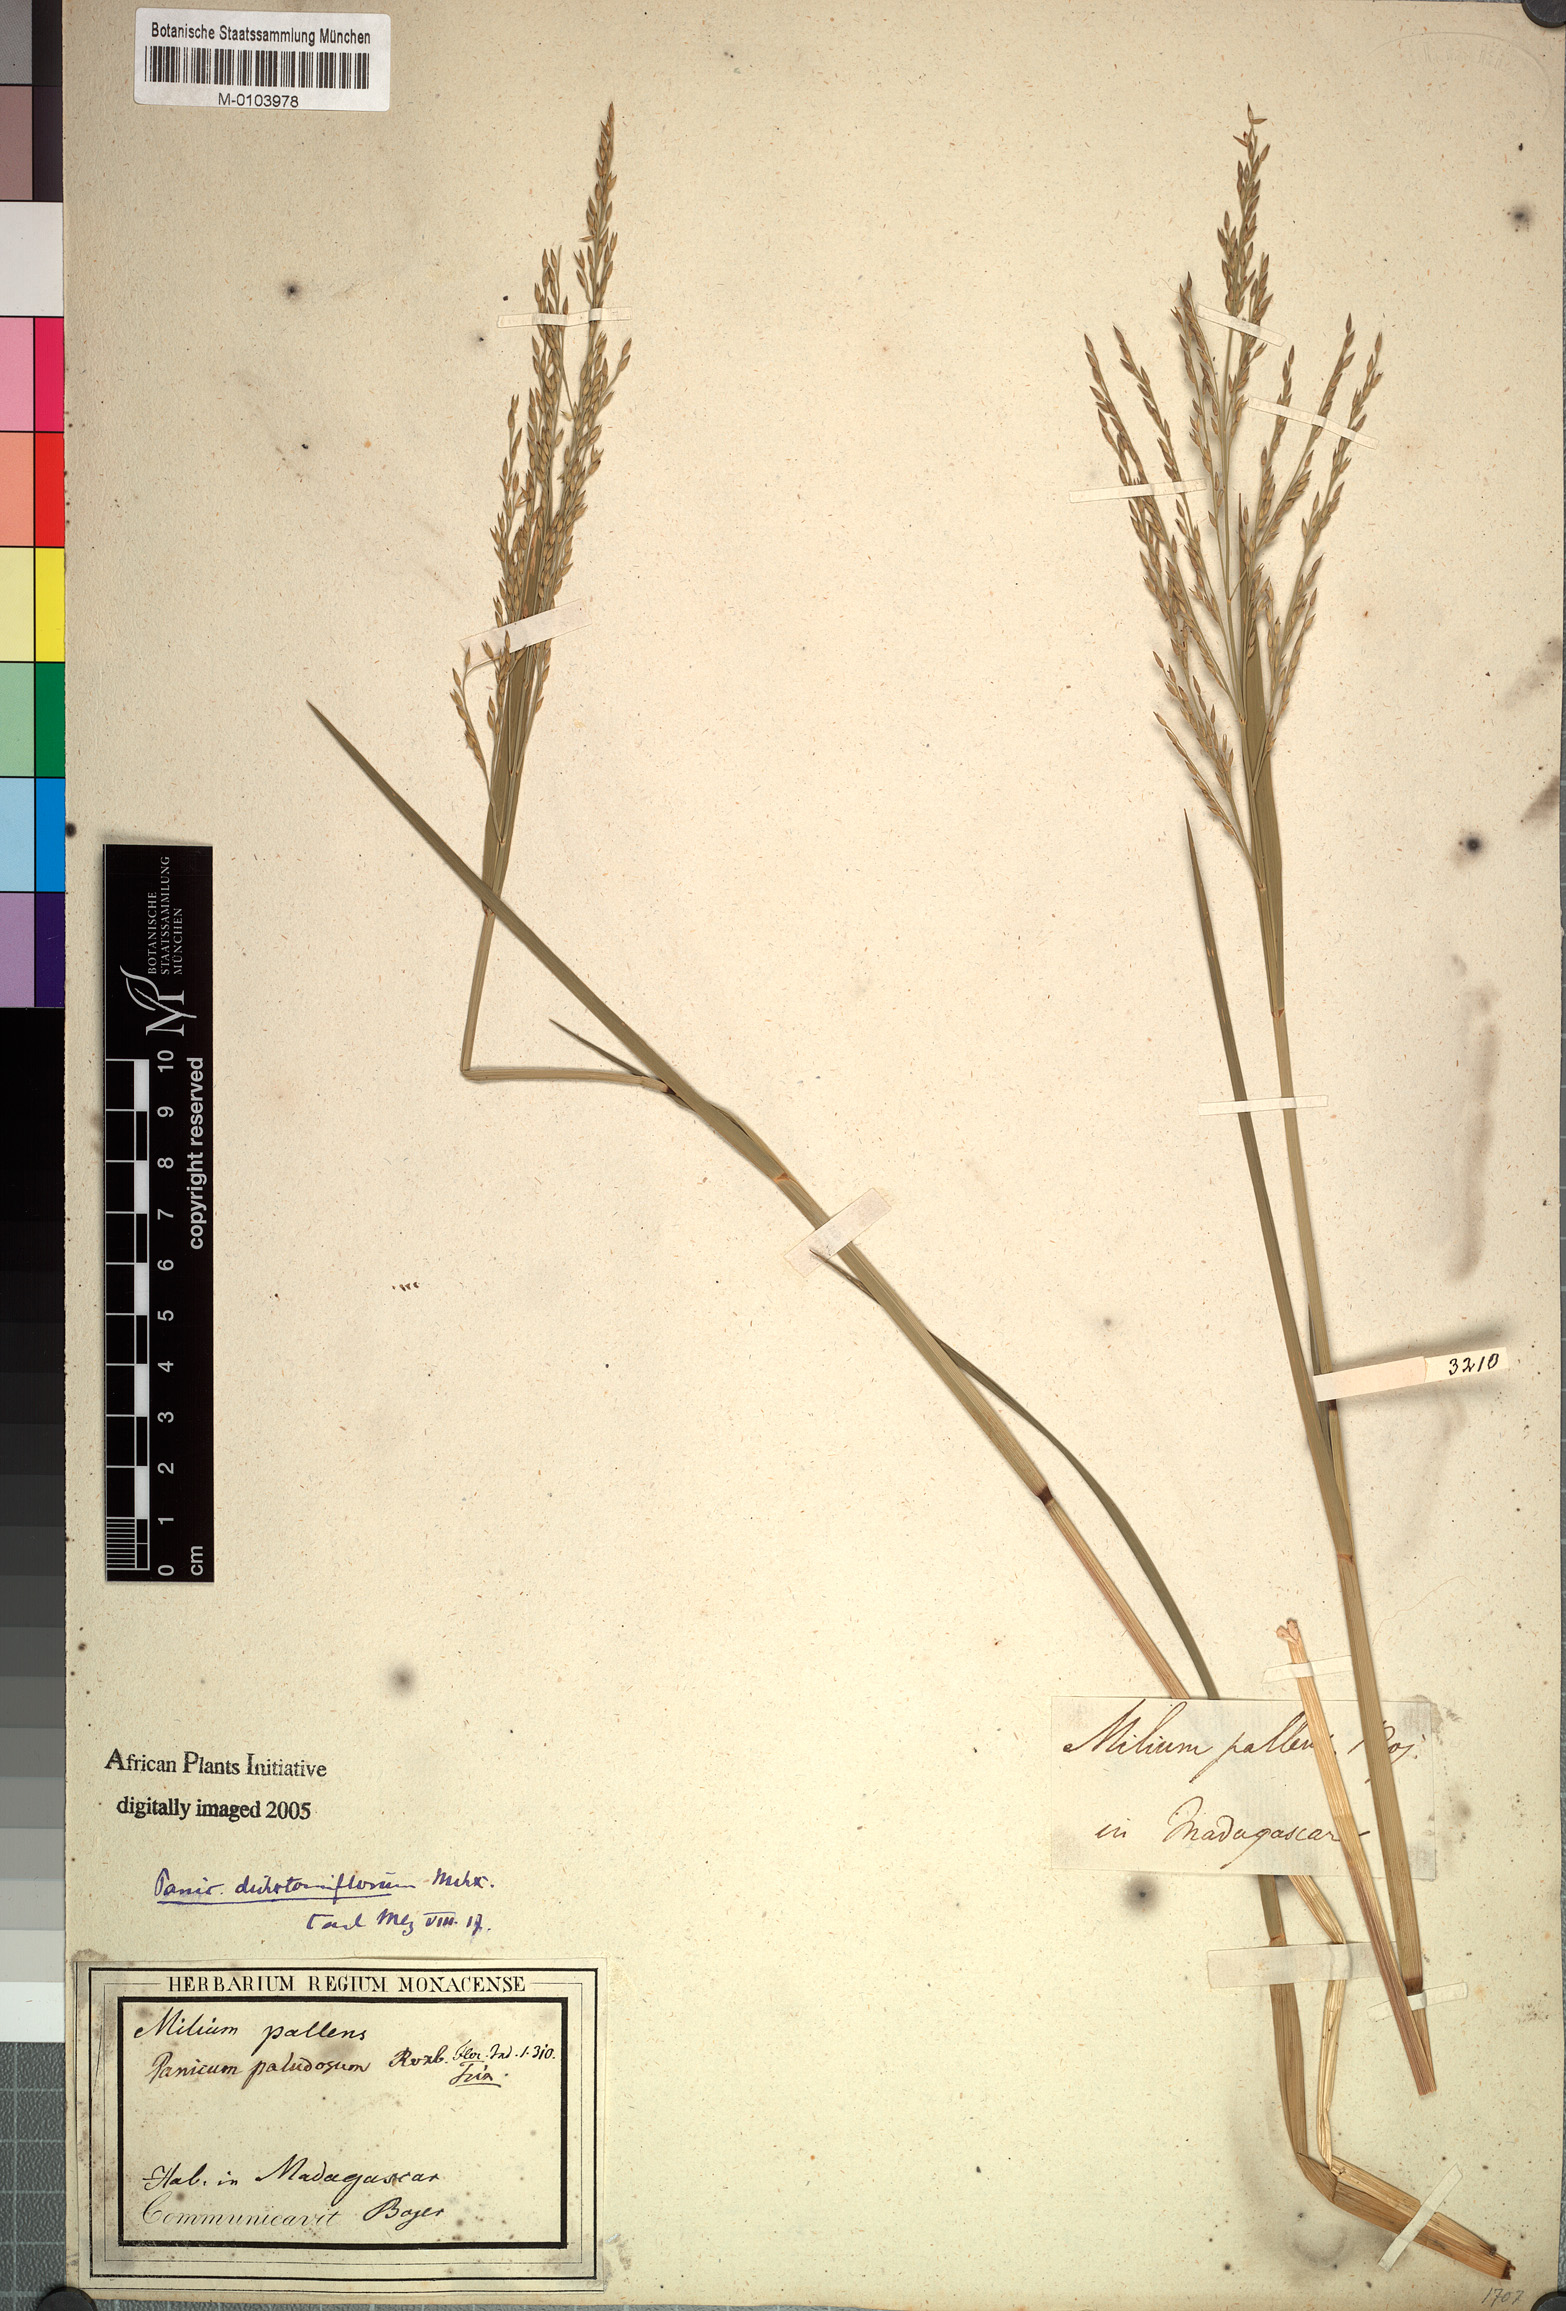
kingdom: Plantae
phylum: Tracheophyta
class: Liliopsida
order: Poales
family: Poaceae
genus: Brachiaria
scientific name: Brachiaria
